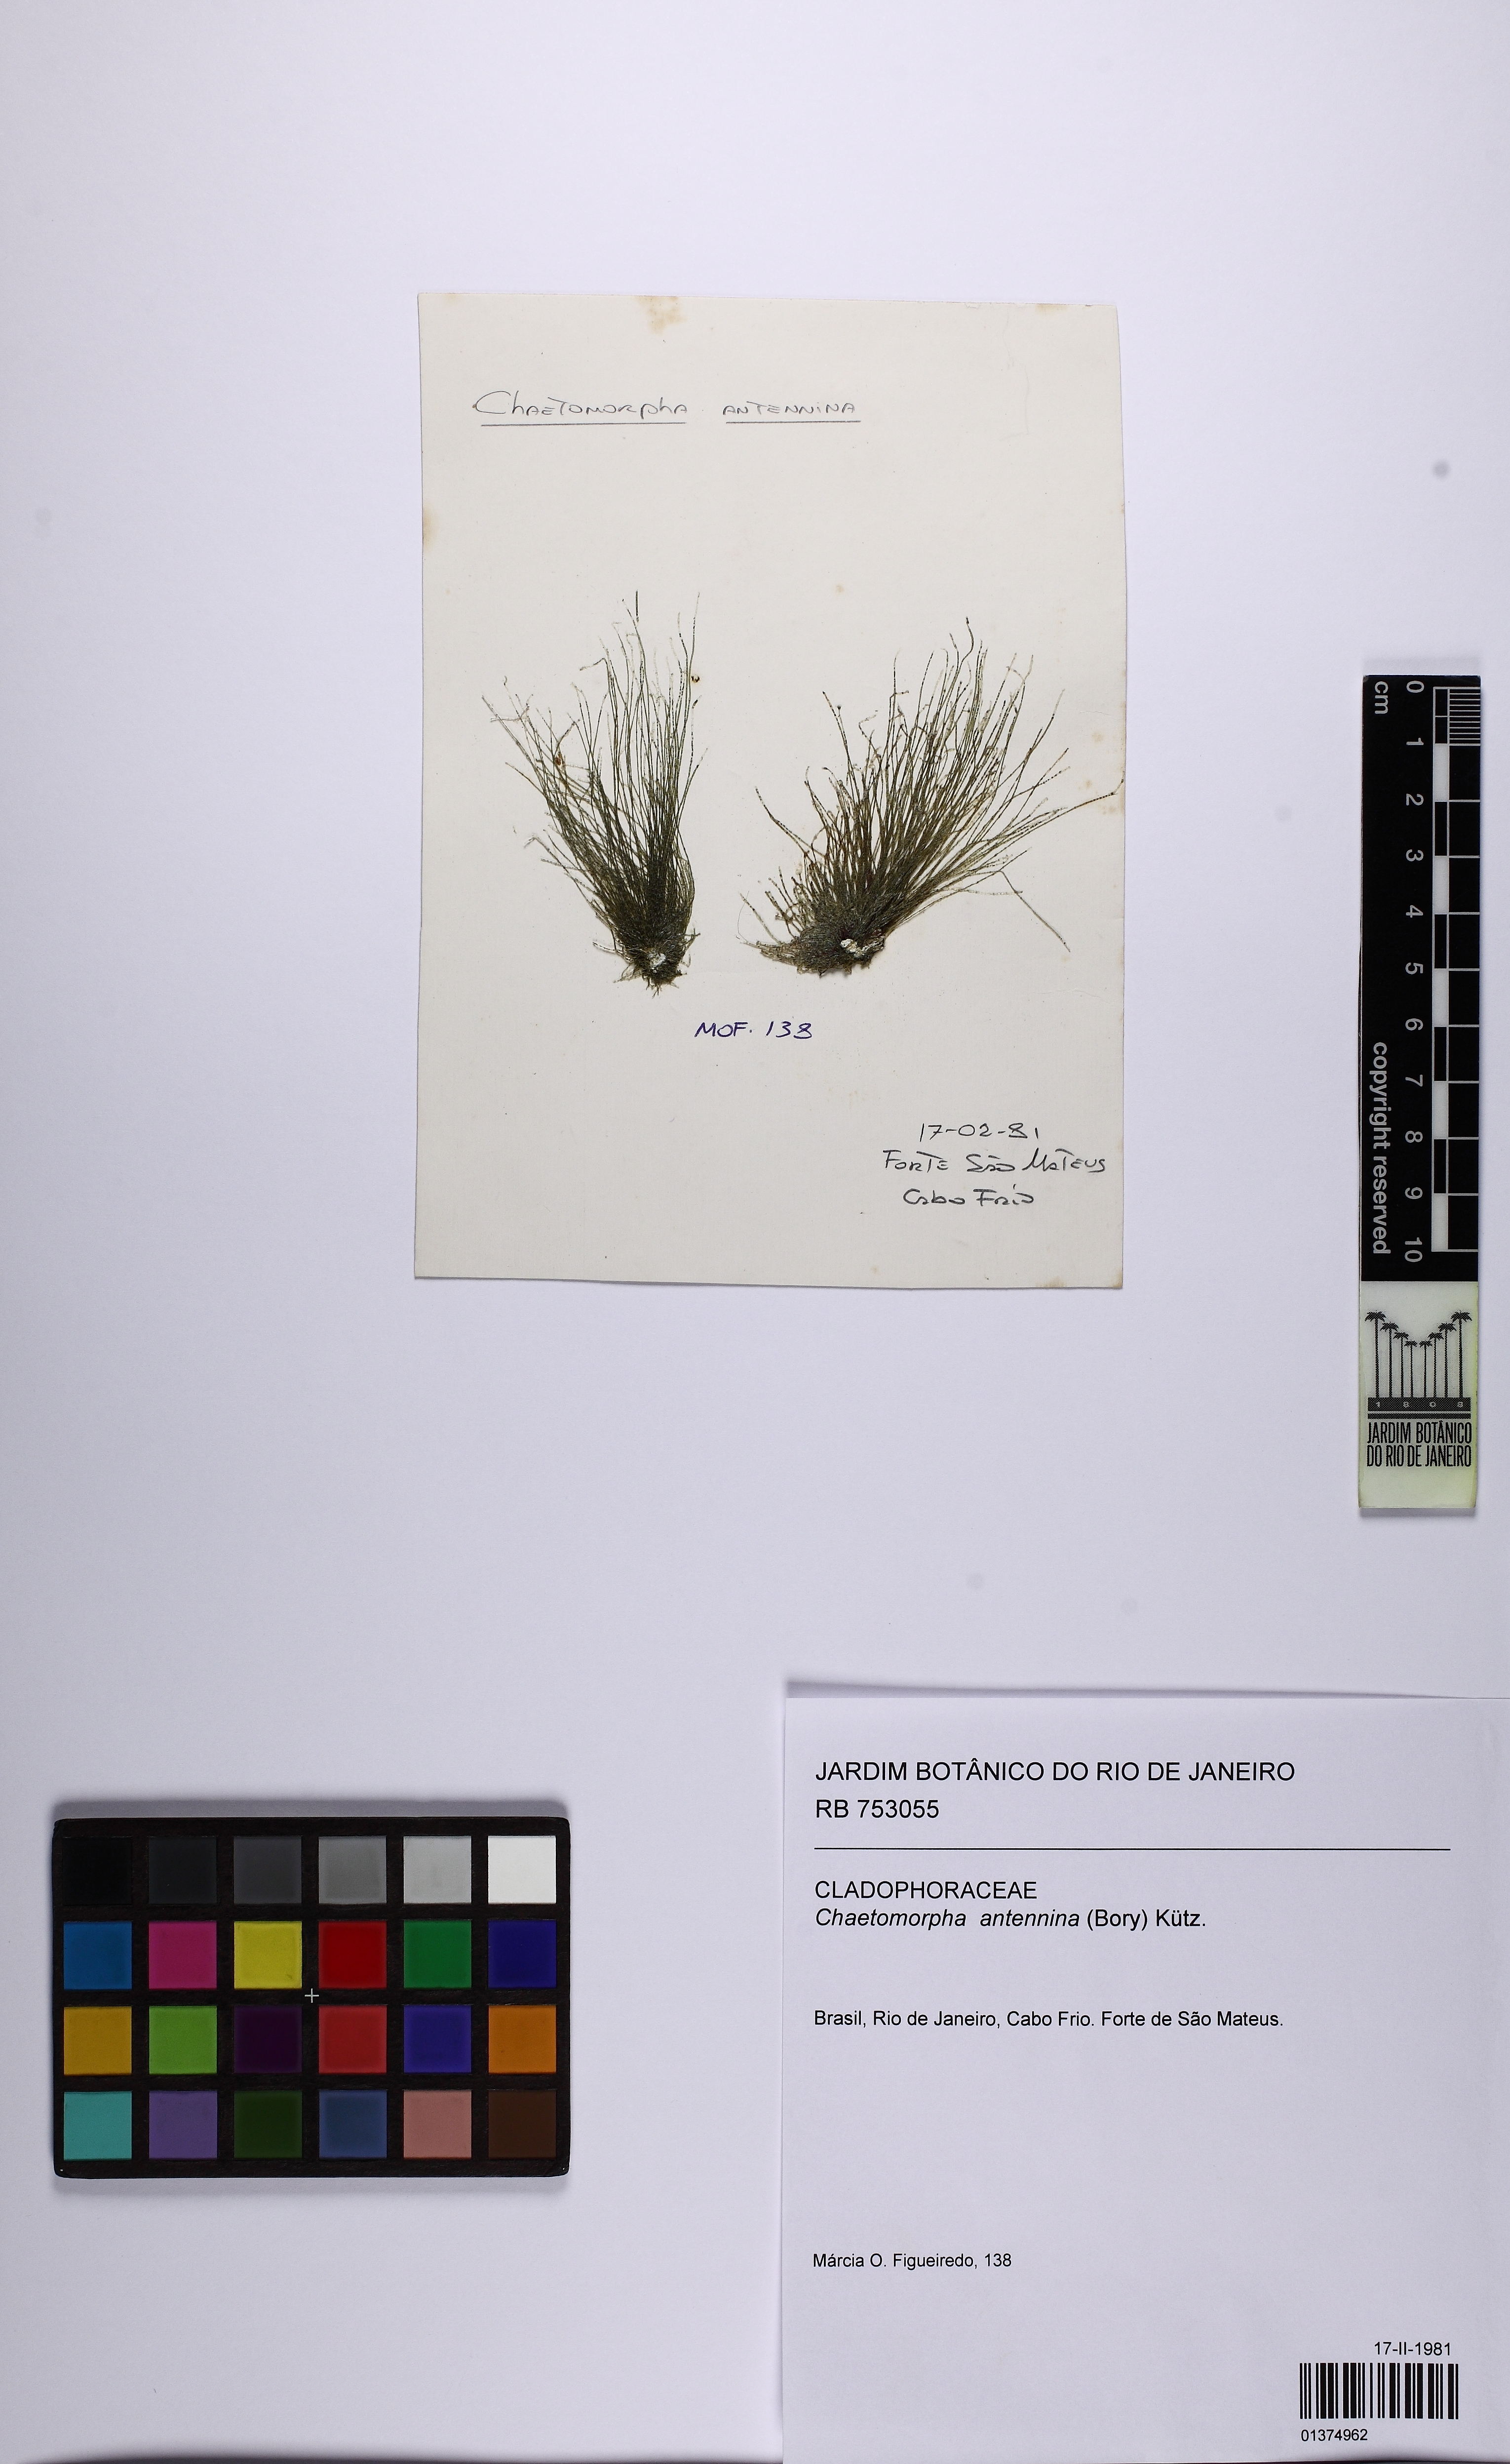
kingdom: Plantae
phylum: Chlorophyta
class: Ulvophyceae
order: Cladophorales
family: Cladophoraceae
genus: Chaetomorpha
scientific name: Chaetomorpha antennina
